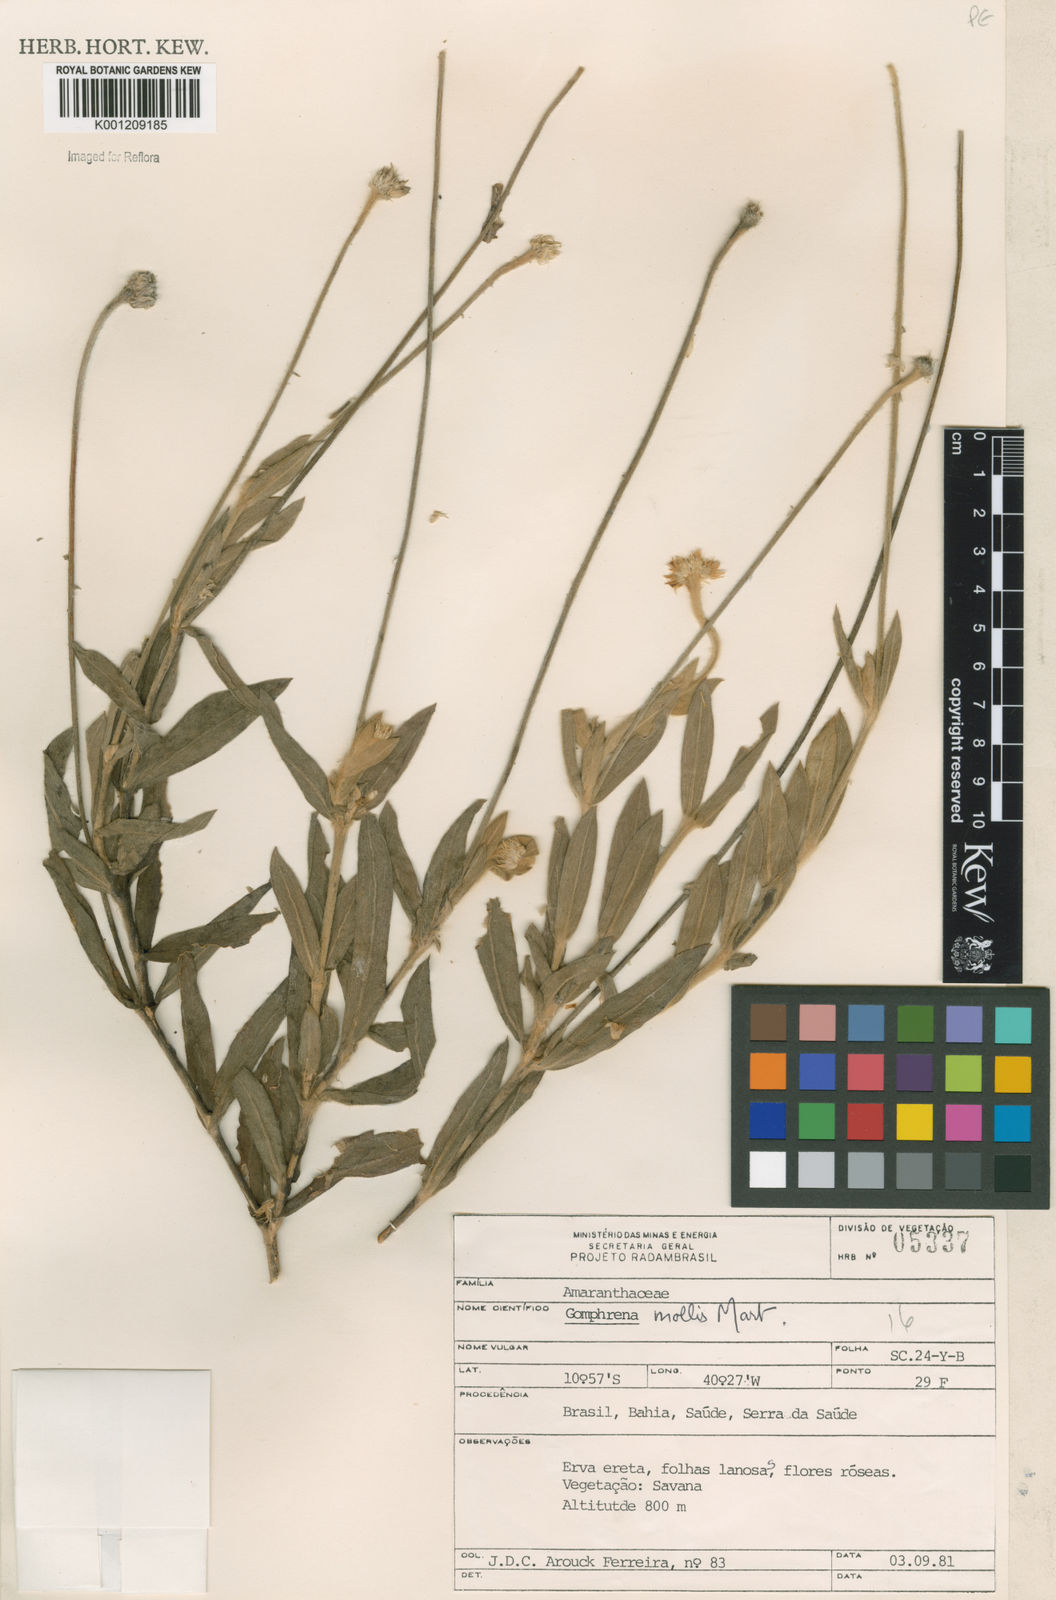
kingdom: Plantae
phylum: Tracheophyta
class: Magnoliopsida
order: Caryophyllales
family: Amaranthaceae
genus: Gomphrena
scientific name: Gomphrena mollis
